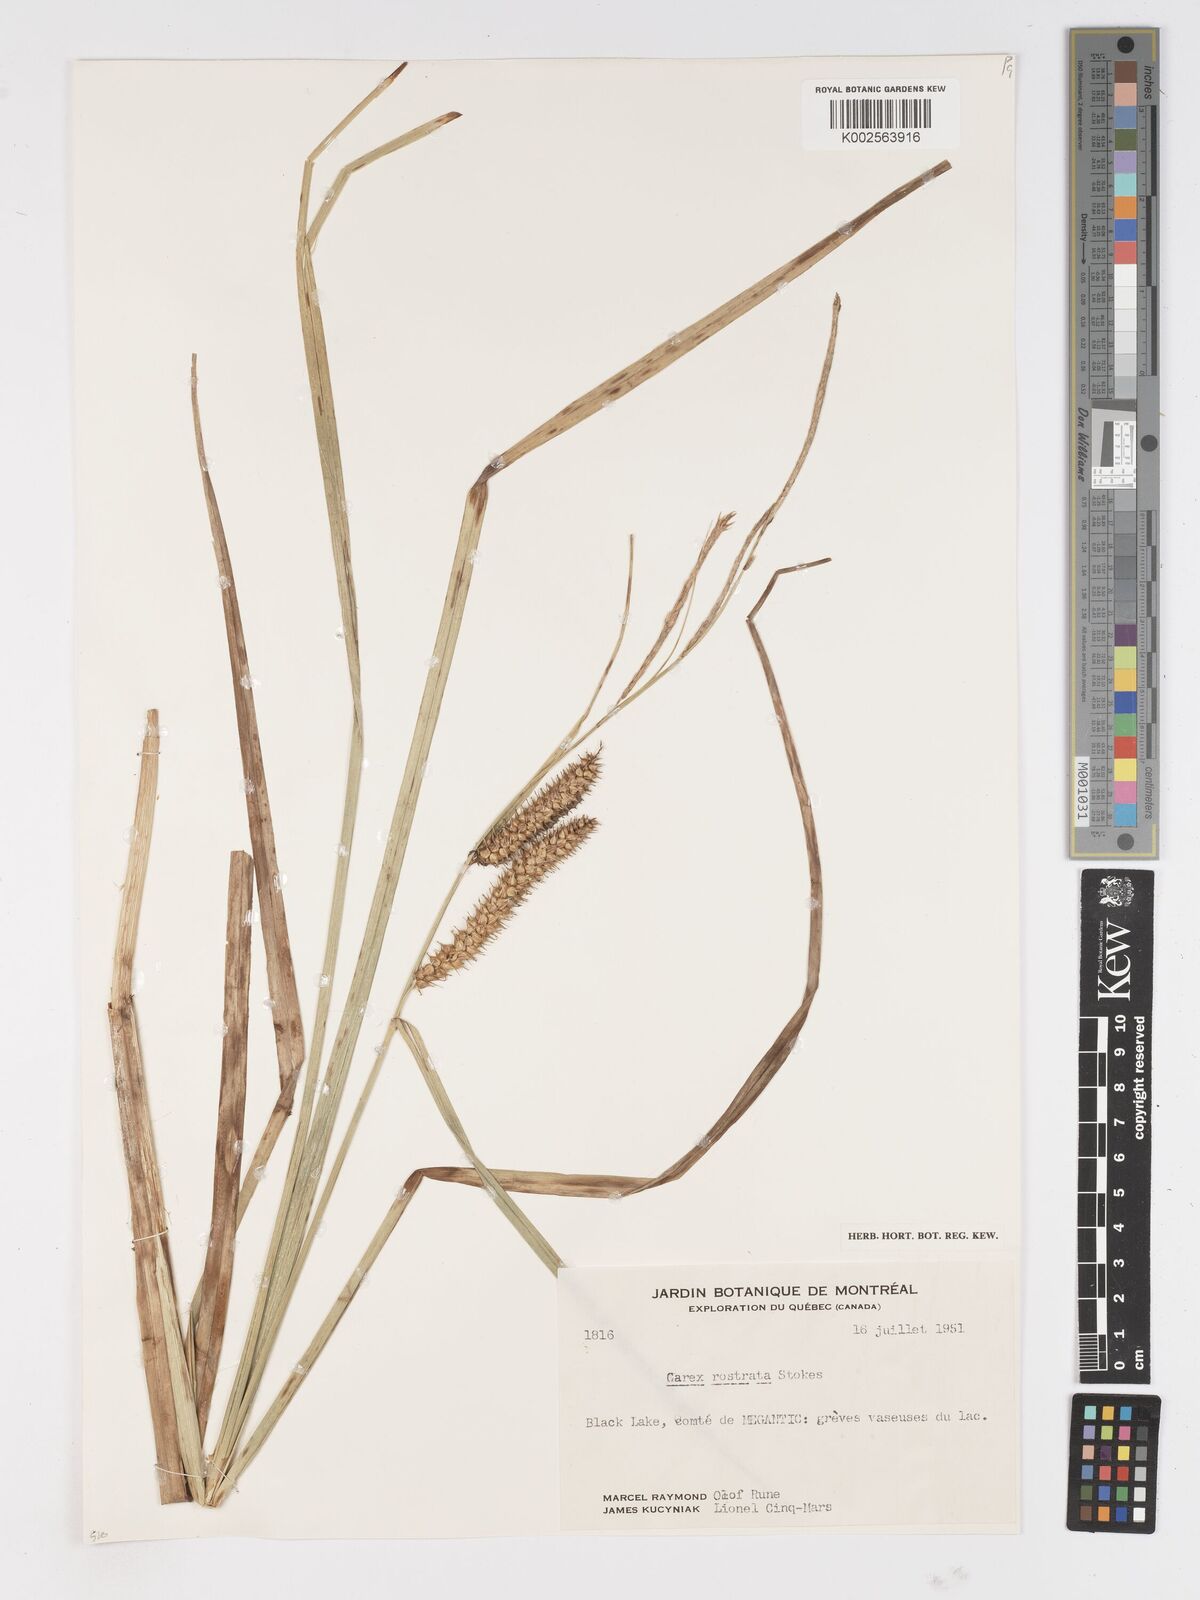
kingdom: Plantae
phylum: Tracheophyta
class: Liliopsida
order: Poales
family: Cyperaceae
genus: Carex
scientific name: Carex rostrata
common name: Bottle sedge
